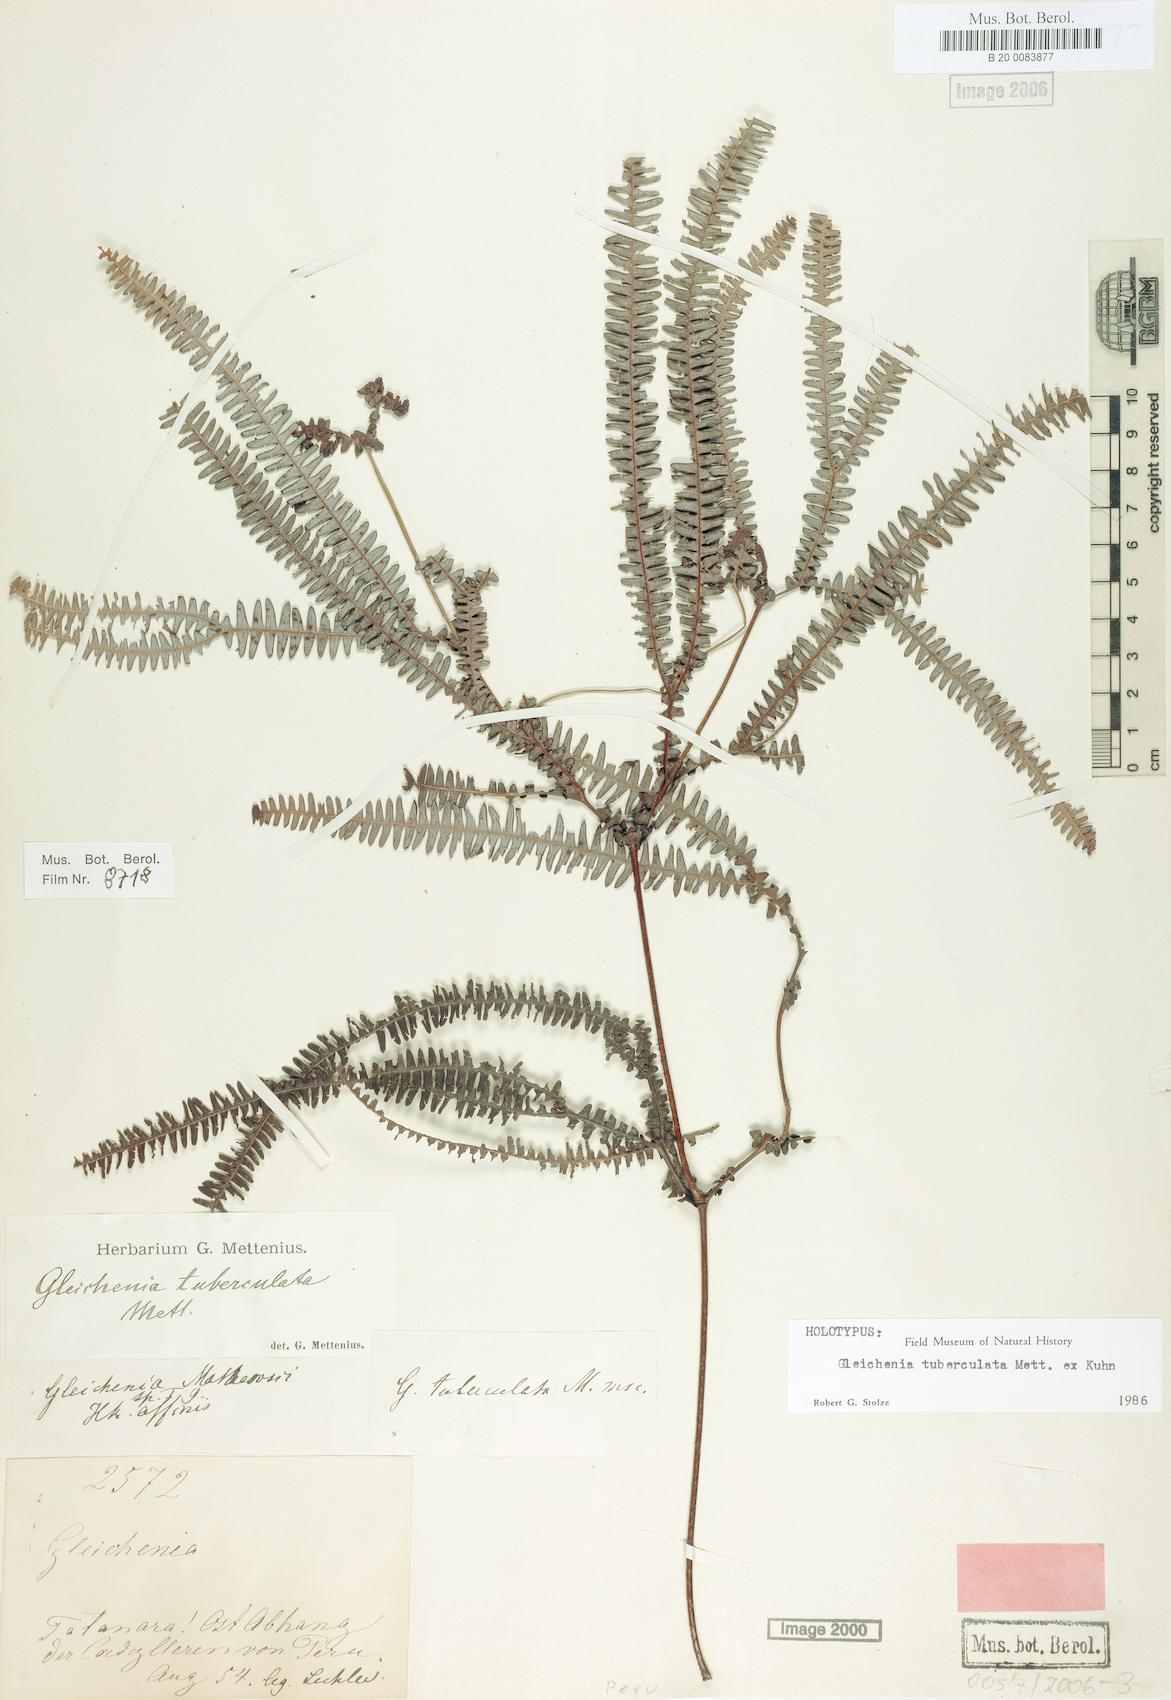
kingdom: Plantae
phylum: Tracheophyta
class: Polypodiopsida
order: Gleicheniales
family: Gleicheniaceae
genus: Sticherus
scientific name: Sticherus revolutus
